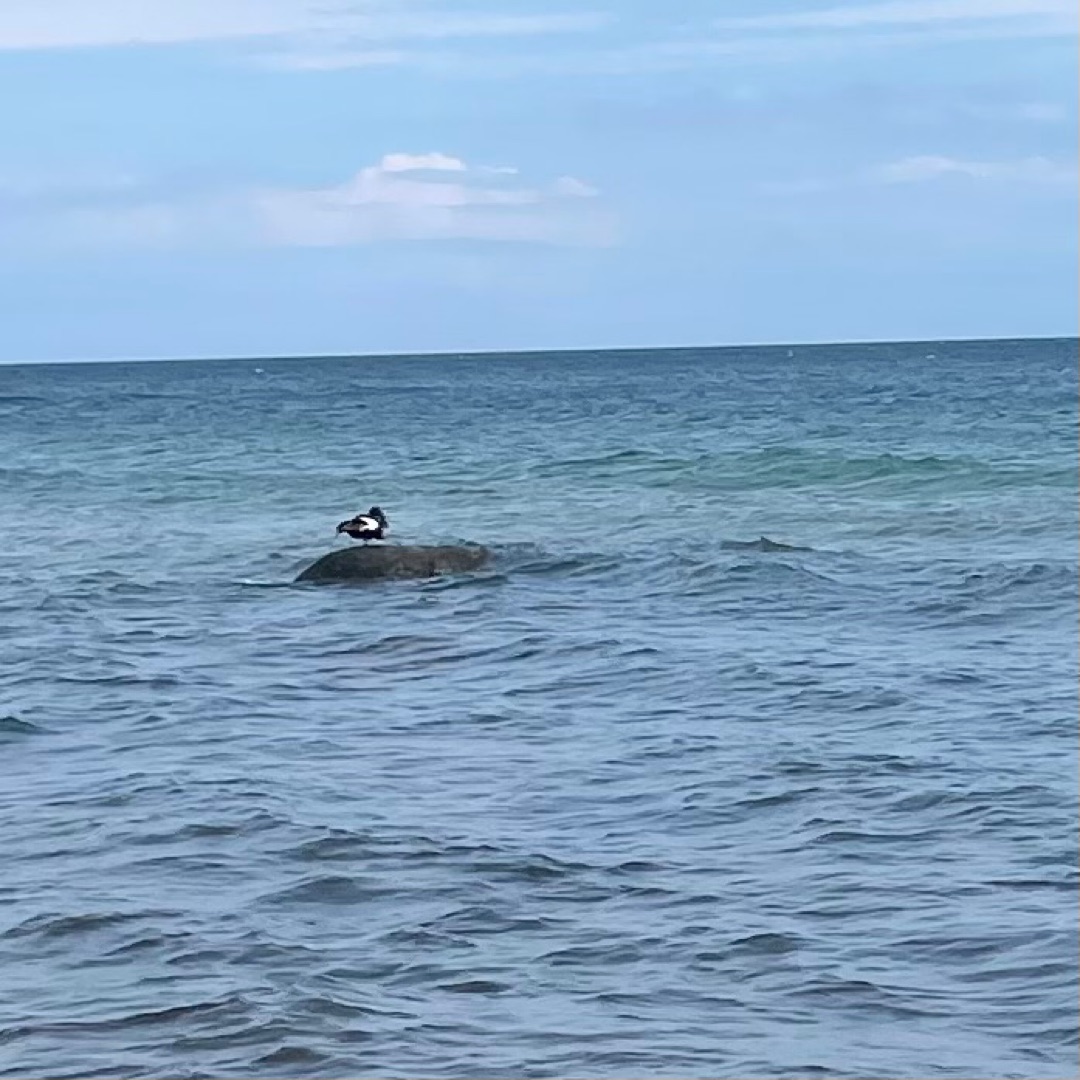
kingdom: Animalia
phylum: Chordata
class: Aves
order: Anseriformes
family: Anatidae
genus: Somateria
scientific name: Somateria mollissima
